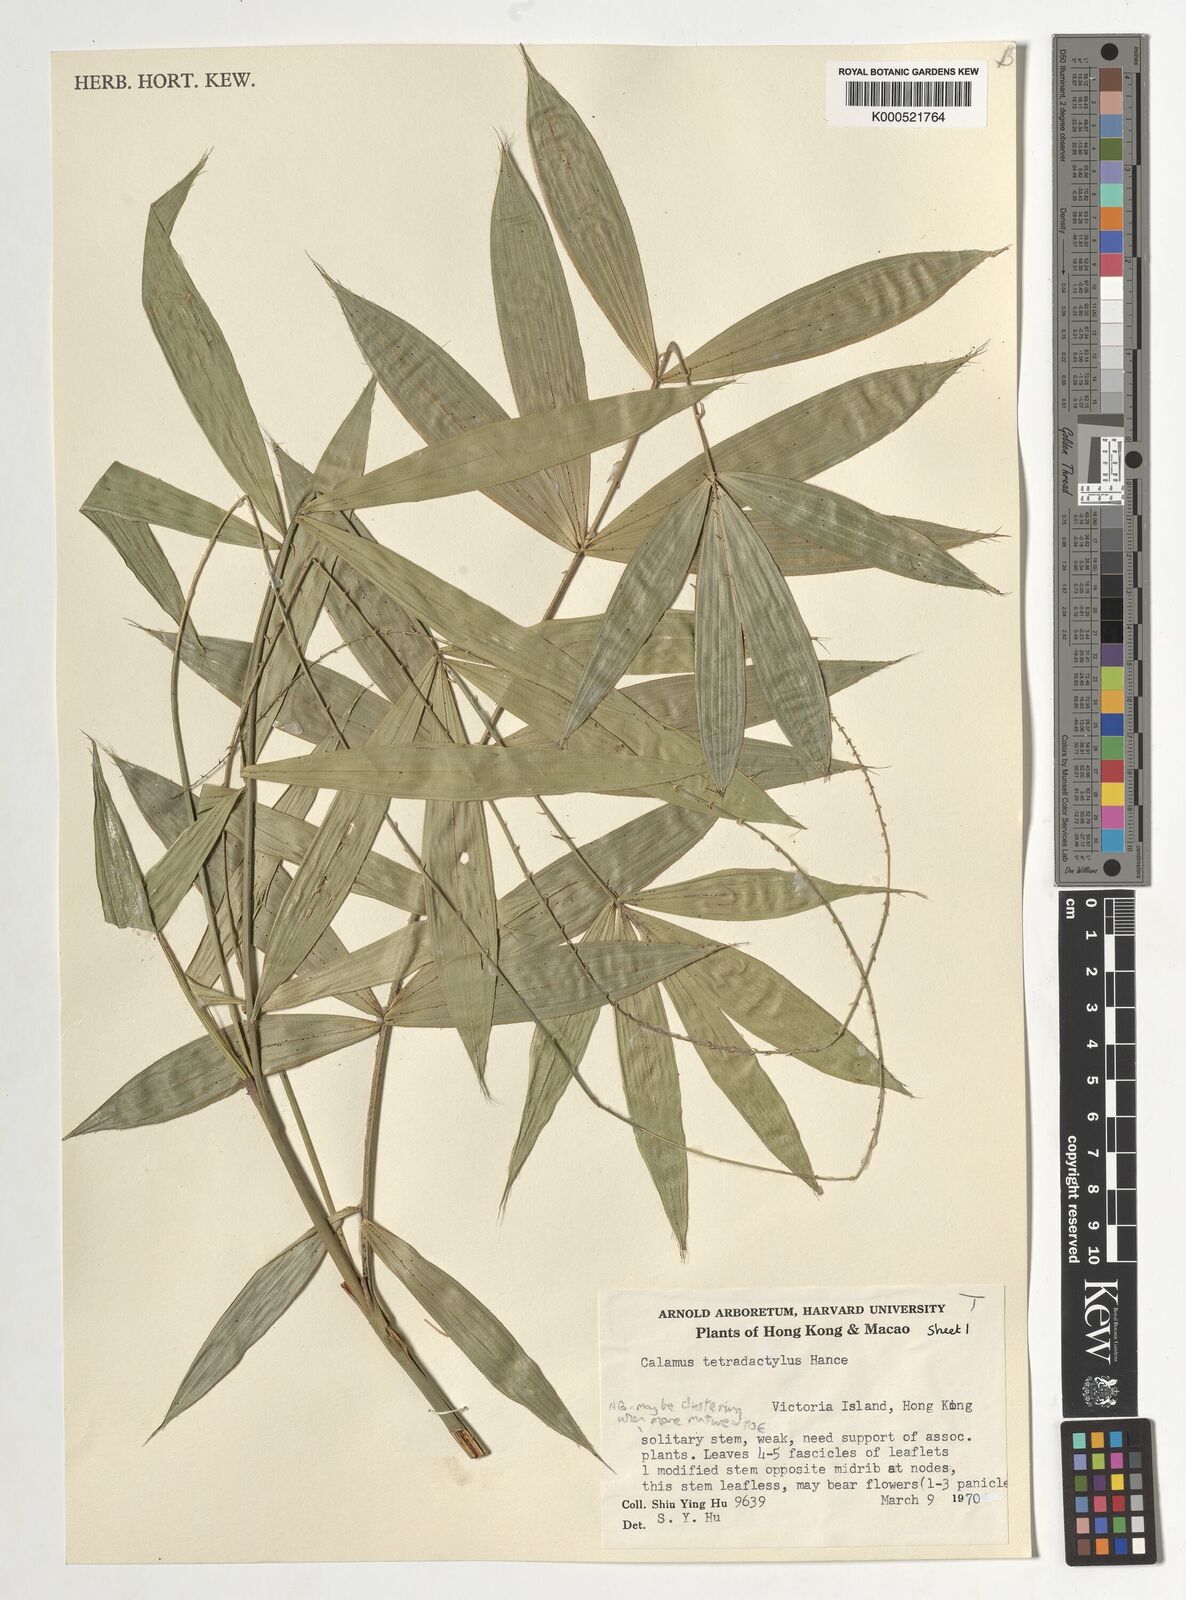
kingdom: Plantae
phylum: Tracheophyta
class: Liliopsida
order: Arecales
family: Arecaceae
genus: Calamus
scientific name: Calamus tetradactylus
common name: White rattan
